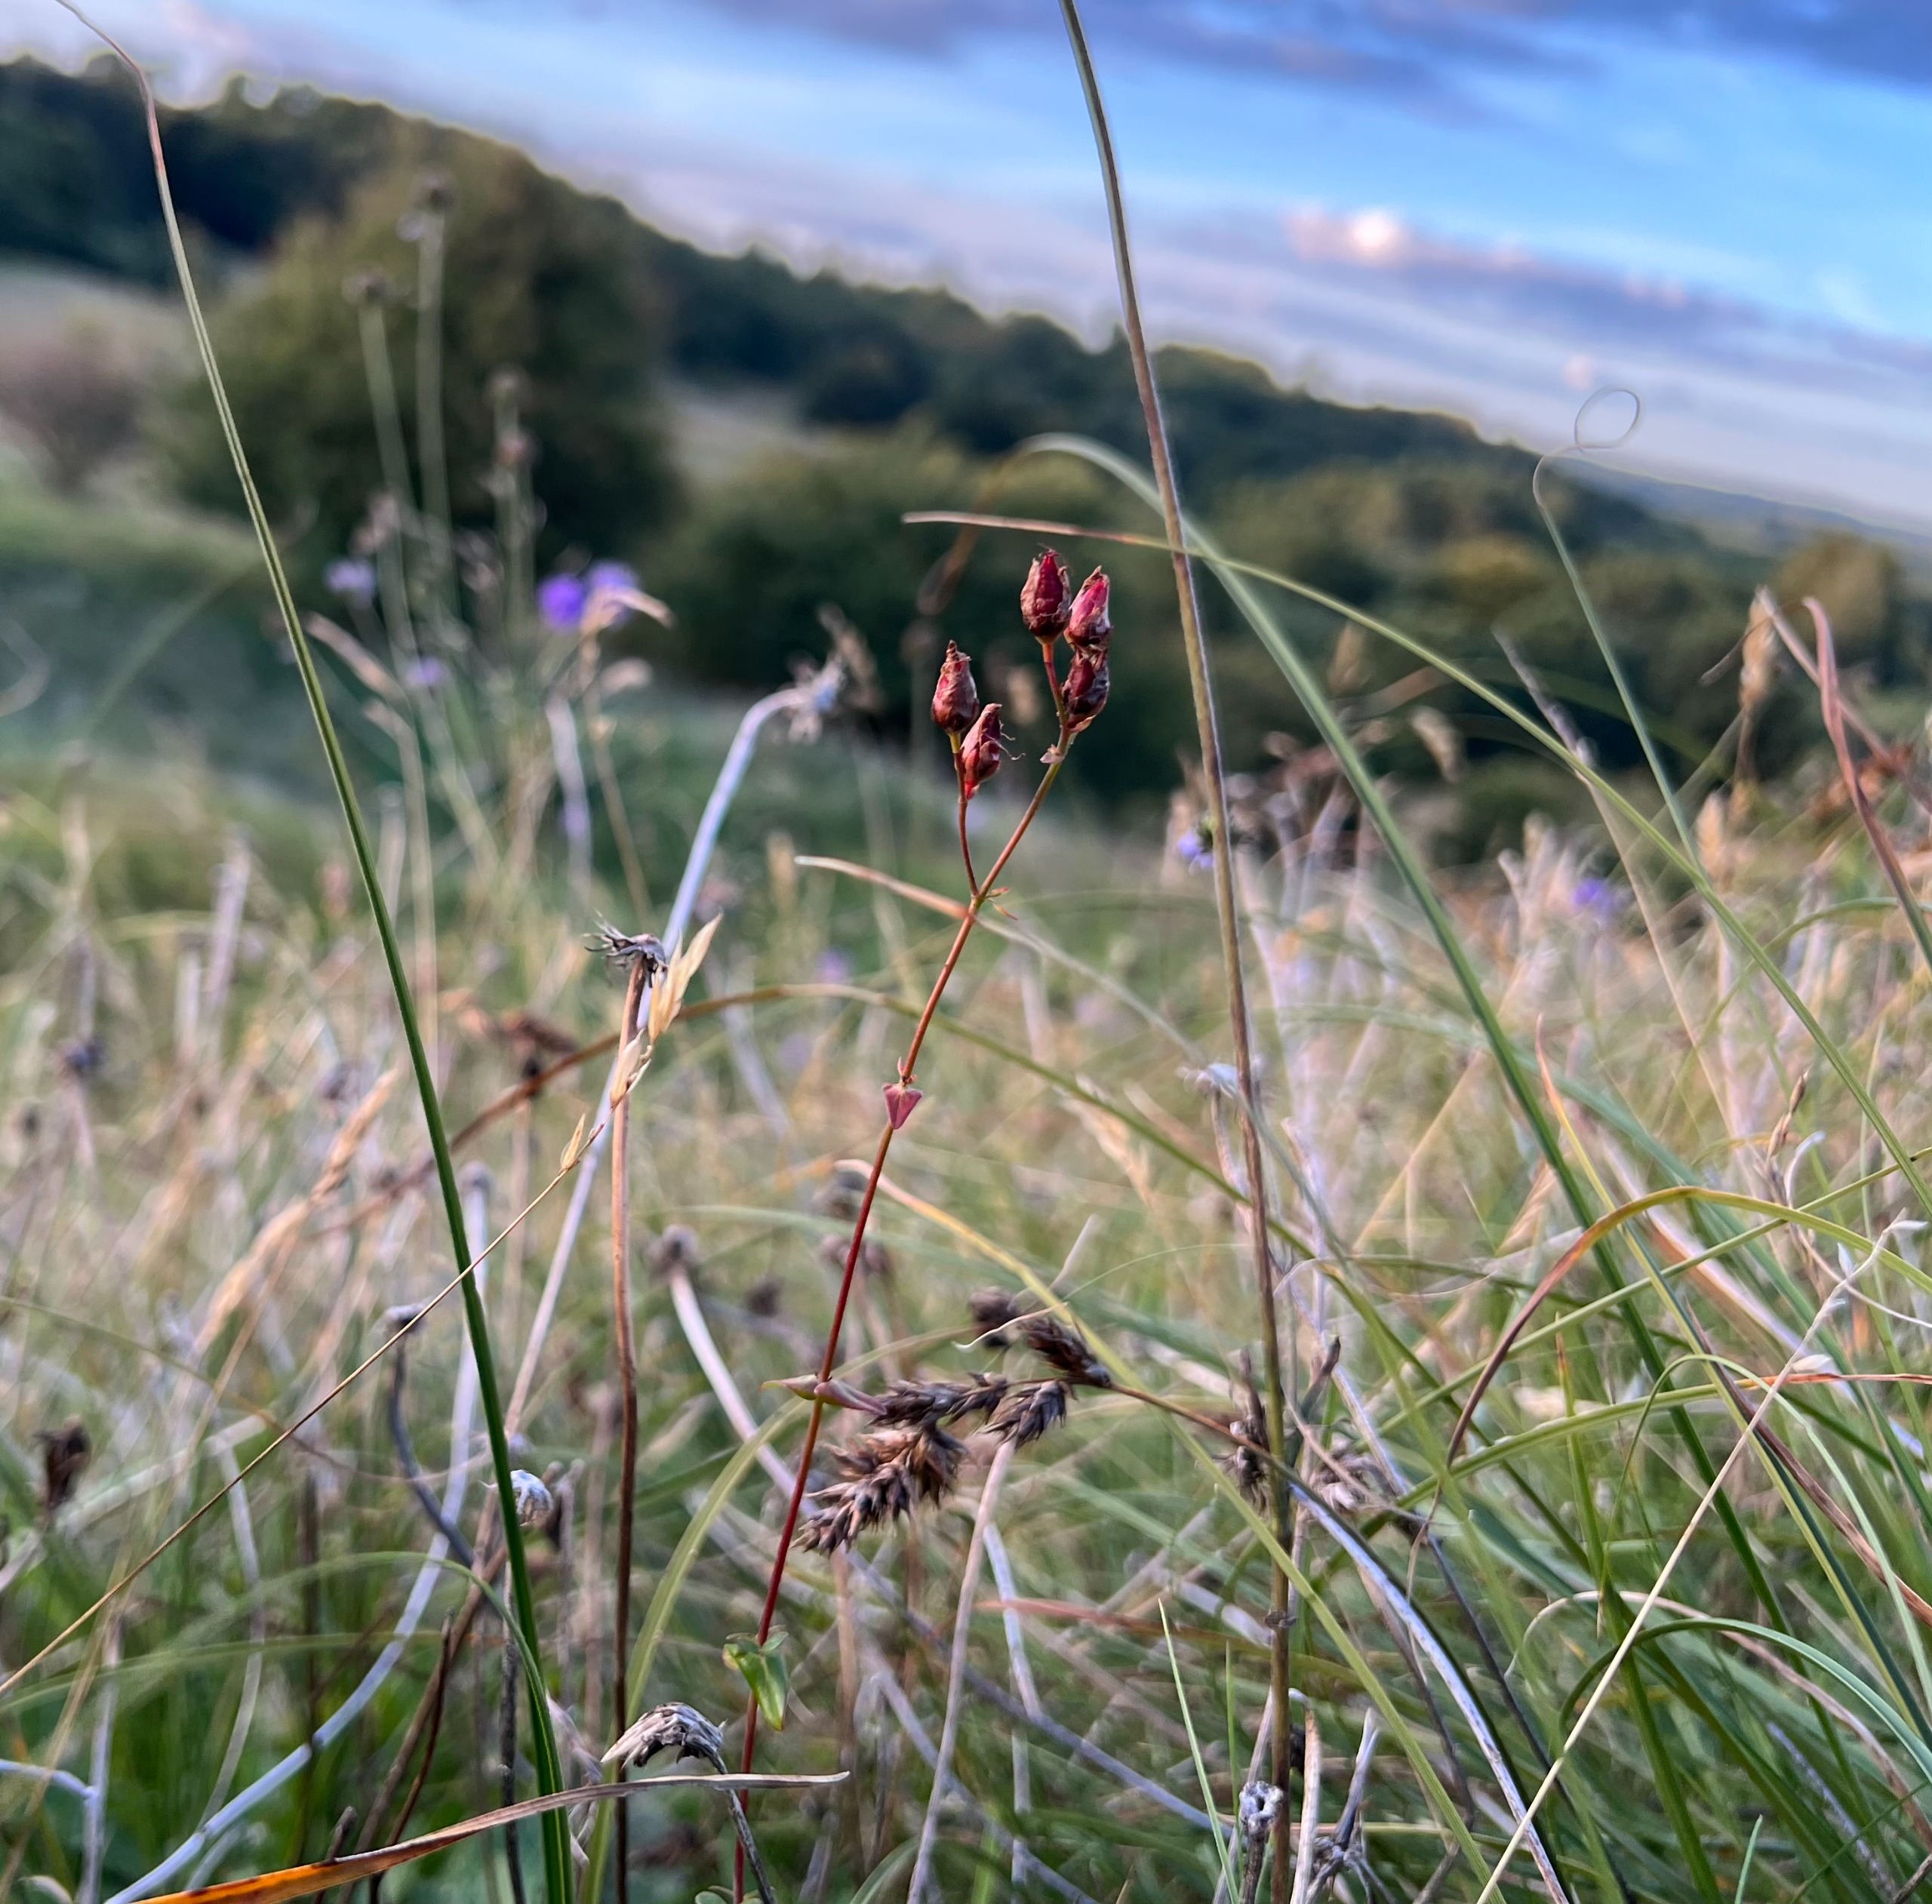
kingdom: Plantae
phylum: Tracheophyta
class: Magnoliopsida
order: Malpighiales
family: Hypericaceae
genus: Hypericum
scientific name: Hypericum pulchrum
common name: Smuk perikon
